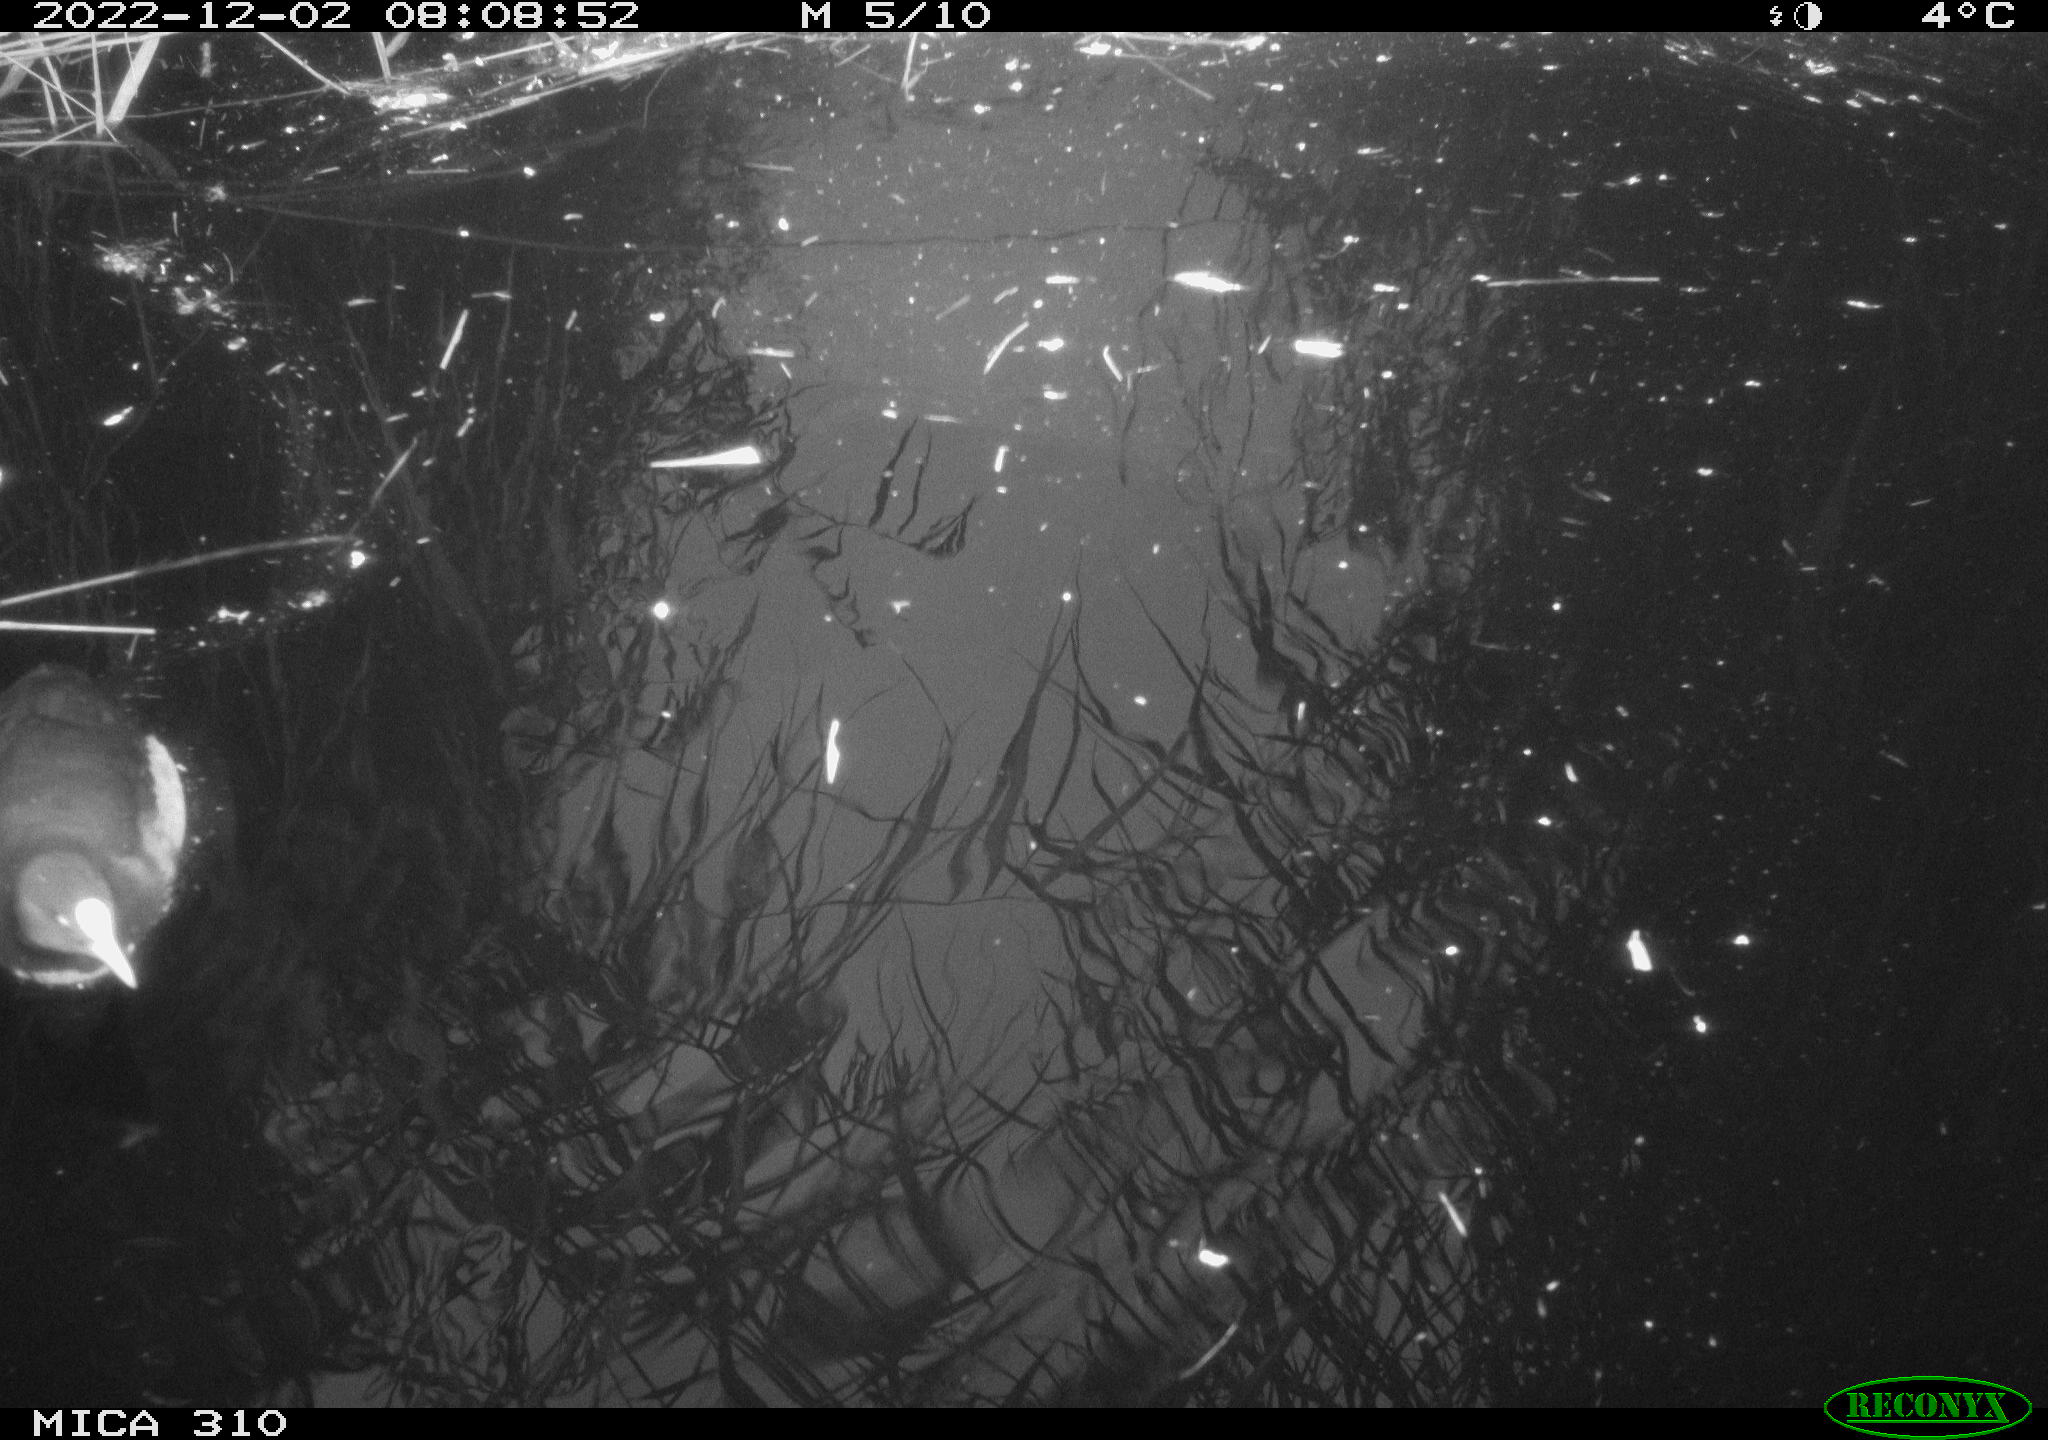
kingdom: Animalia
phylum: Chordata
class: Aves
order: Gruiformes
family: Rallidae
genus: Fulica
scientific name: Fulica atra
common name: Eurasian coot
